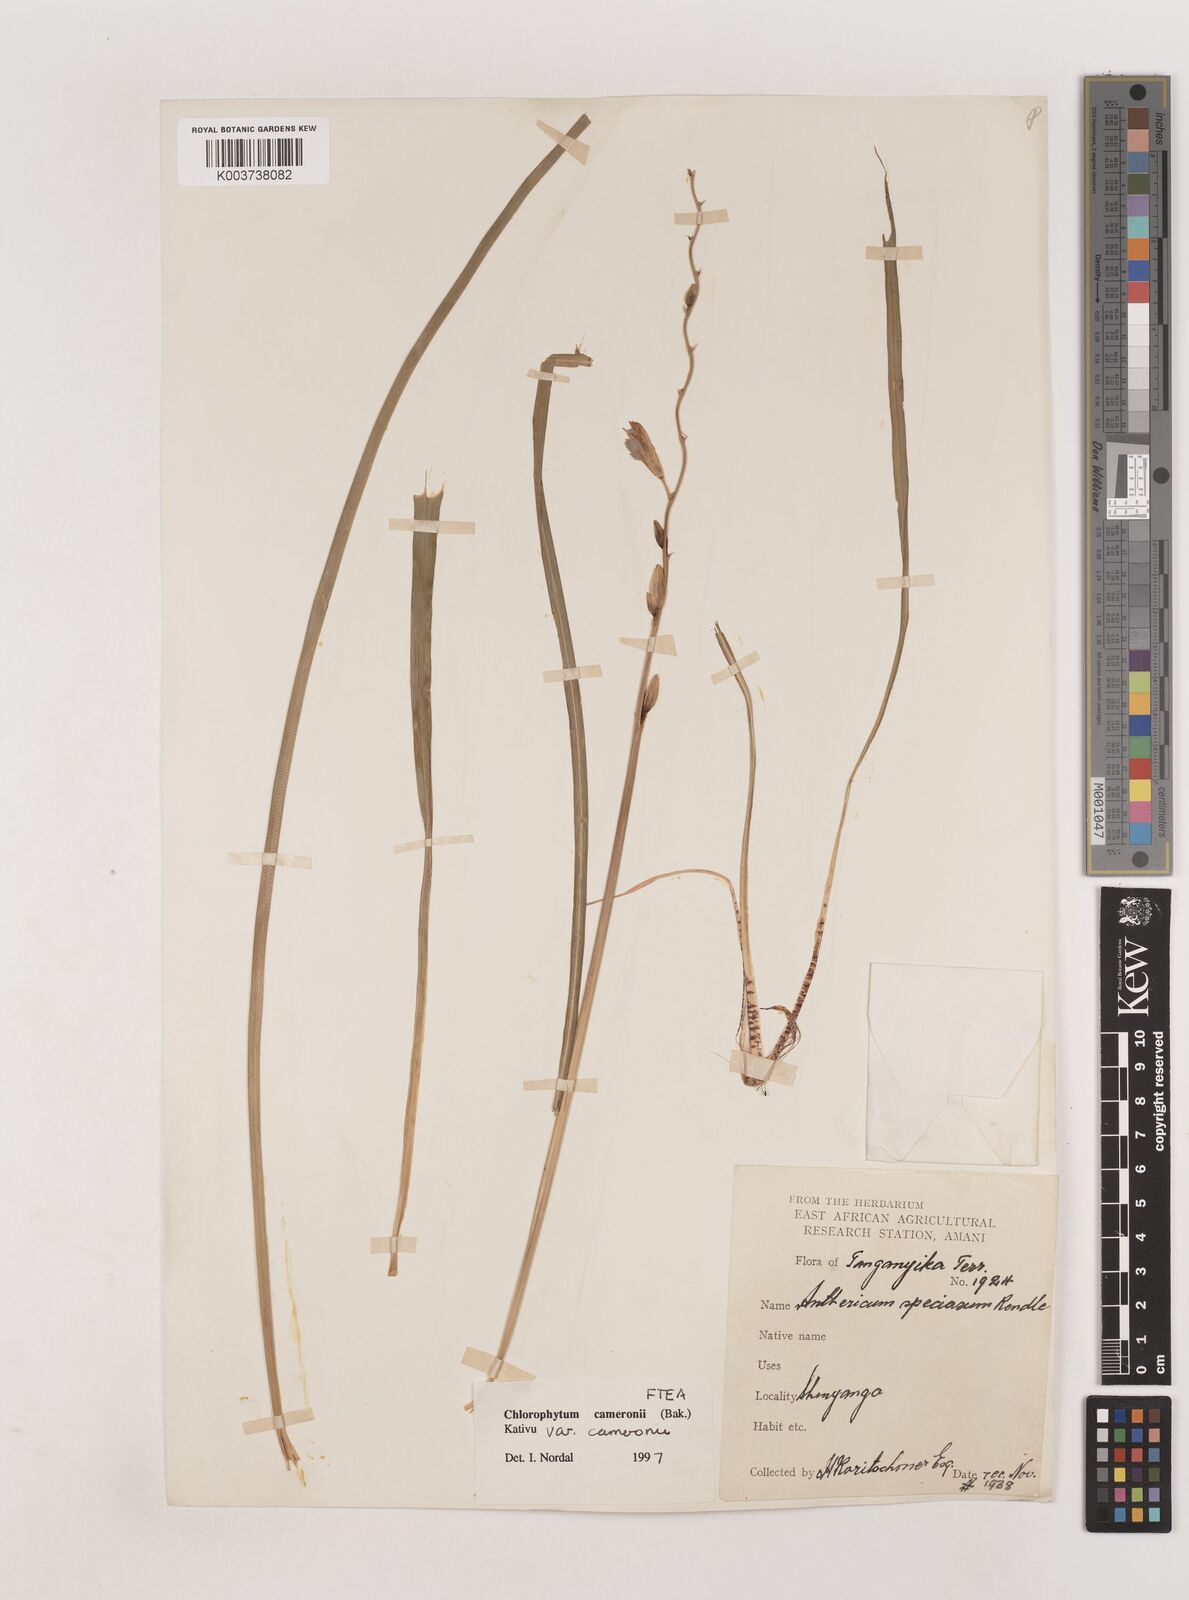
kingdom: Plantae
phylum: Tracheophyta
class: Liliopsida
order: Asparagales
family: Asparagaceae
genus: Chlorophytum
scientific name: Chlorophytum cameronii
